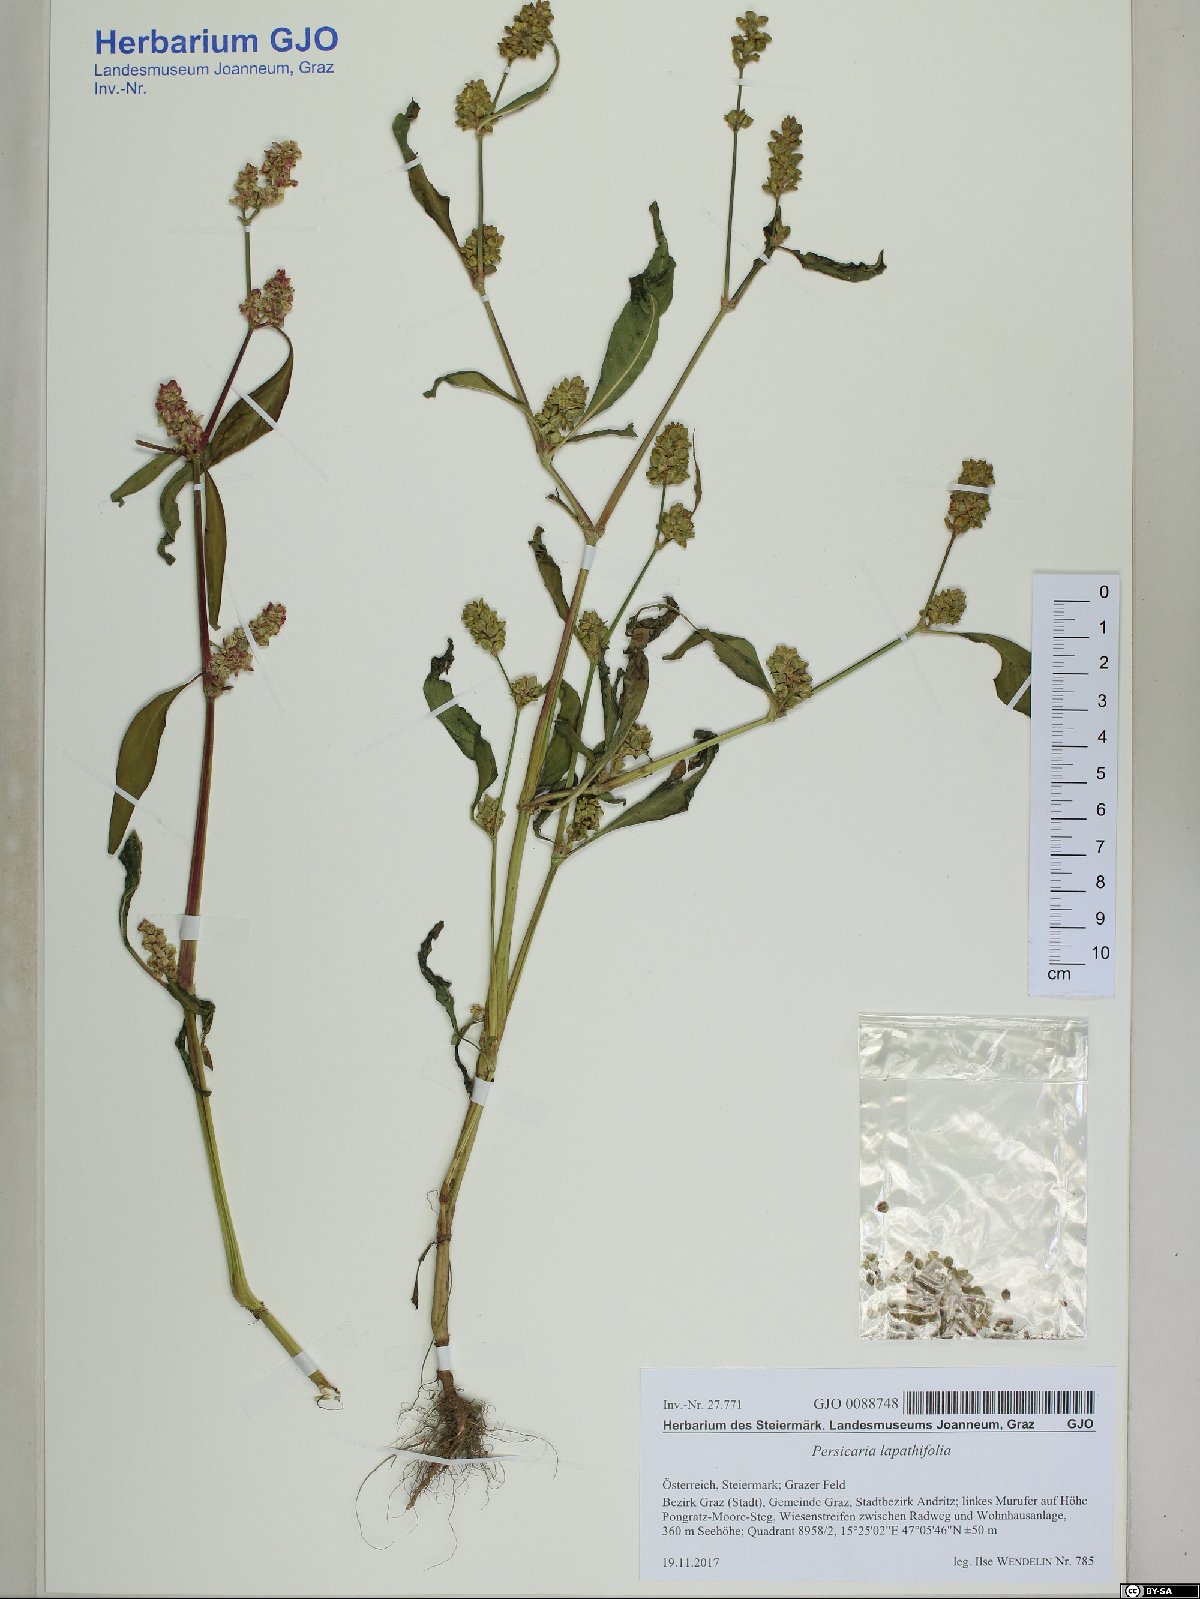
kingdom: Plantae
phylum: Tracheophyta
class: Magnoliopsida
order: Caryophyllales
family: Polygonaceae
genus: Persicaria
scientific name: Persicaria lapathifolia
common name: Curlytop knotweed
